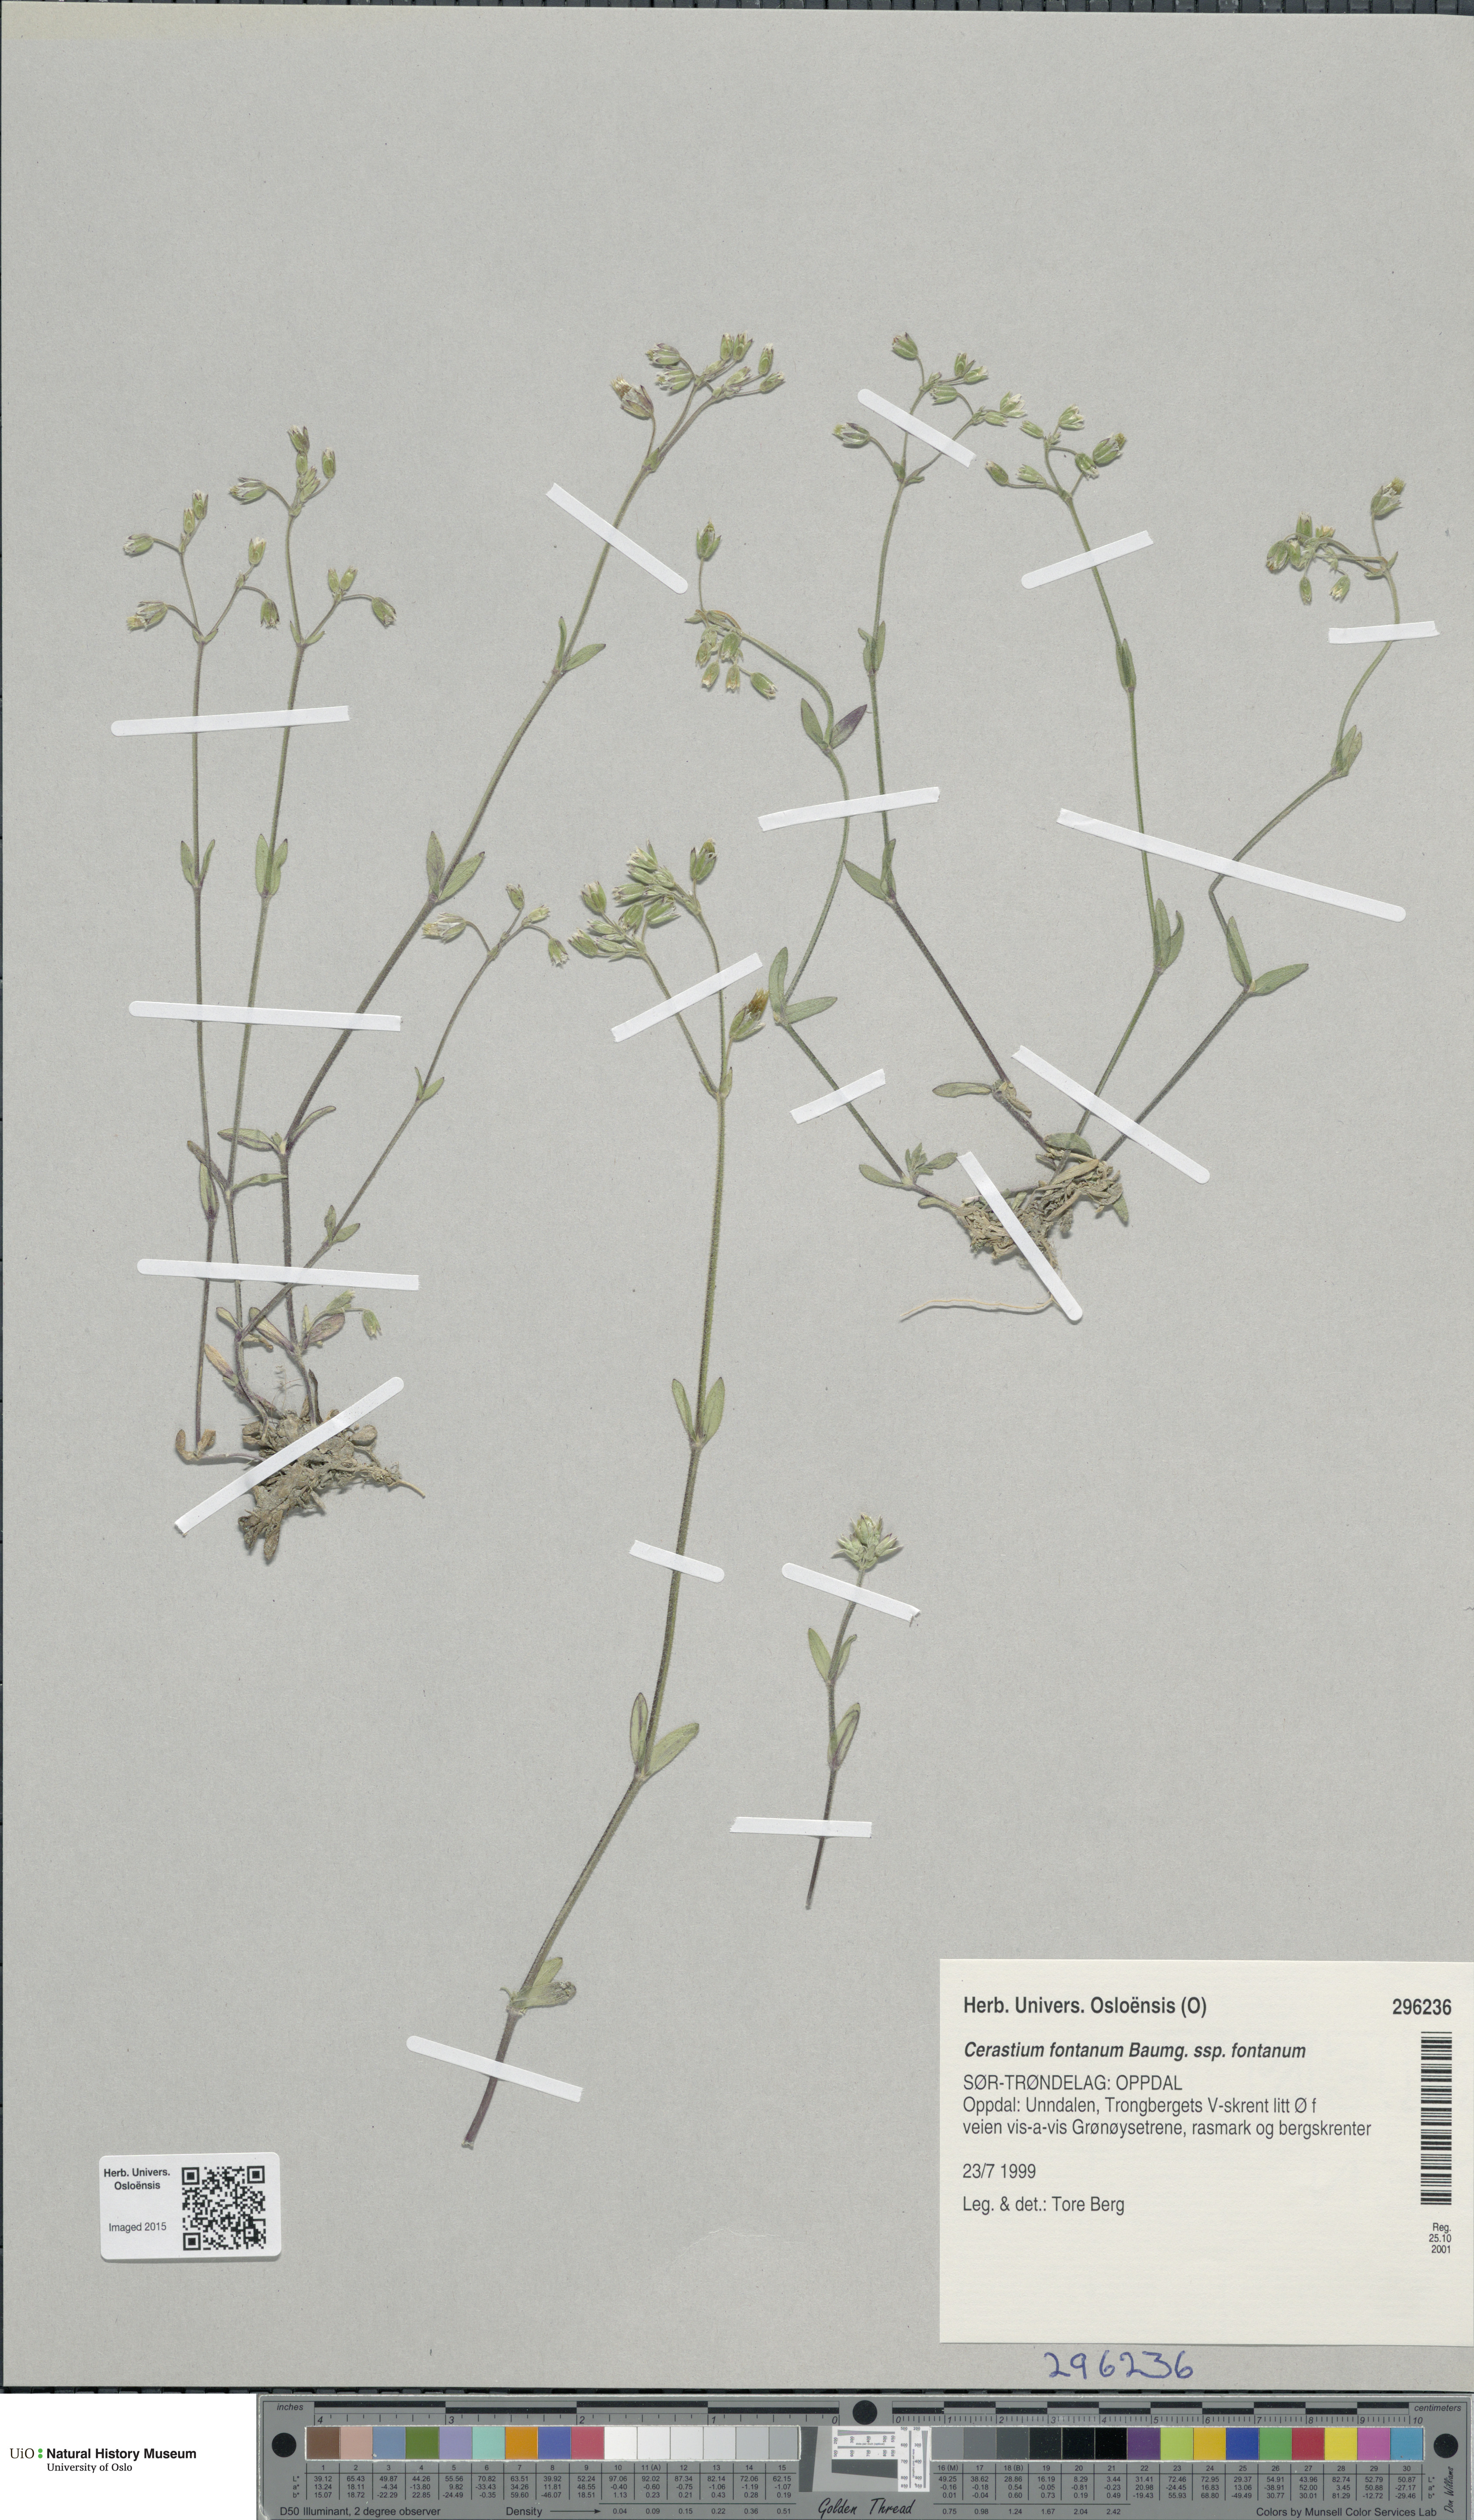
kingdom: Plantae
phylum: Tracheophyta
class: Magnoliopsida
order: Caryophyllales
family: Caryophyllaceae
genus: Cerastium
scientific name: Cerastium fontanum
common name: Common mouse-ear
